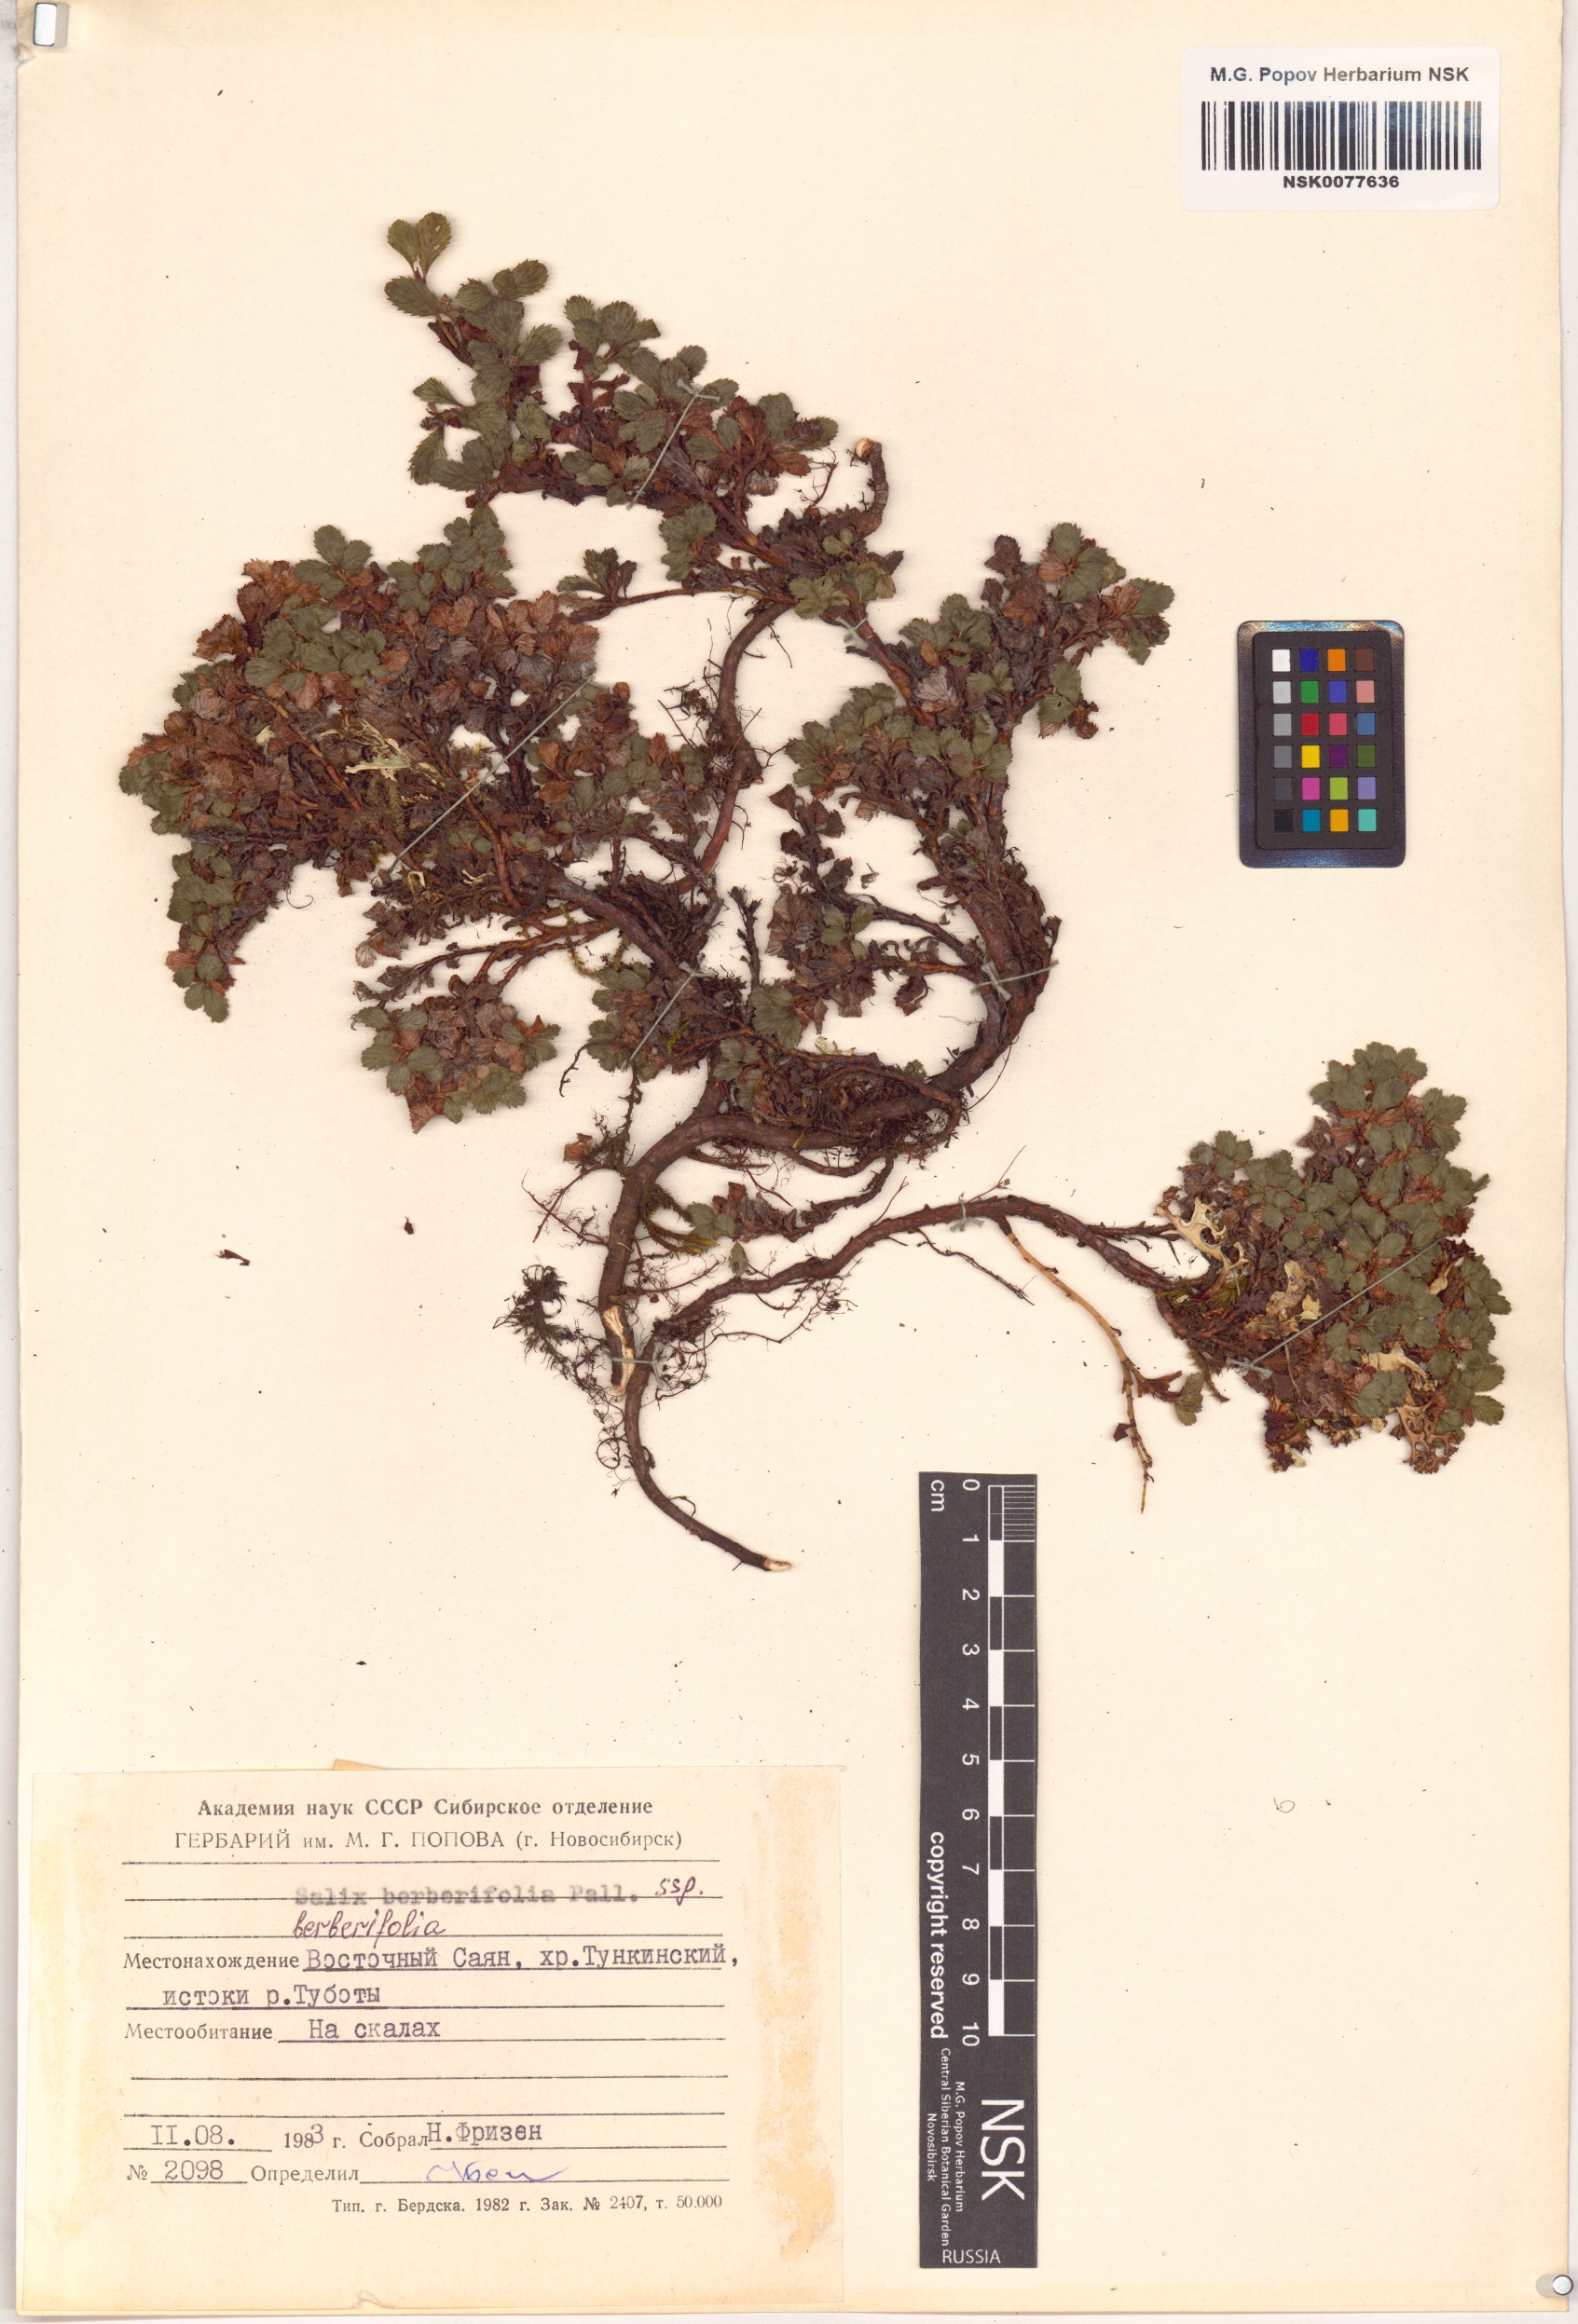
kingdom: Plantae
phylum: Tracheophyta
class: Magnoliopsida
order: Malpighiales
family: Salicaceae
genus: Salix
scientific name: Salix berberifolia
